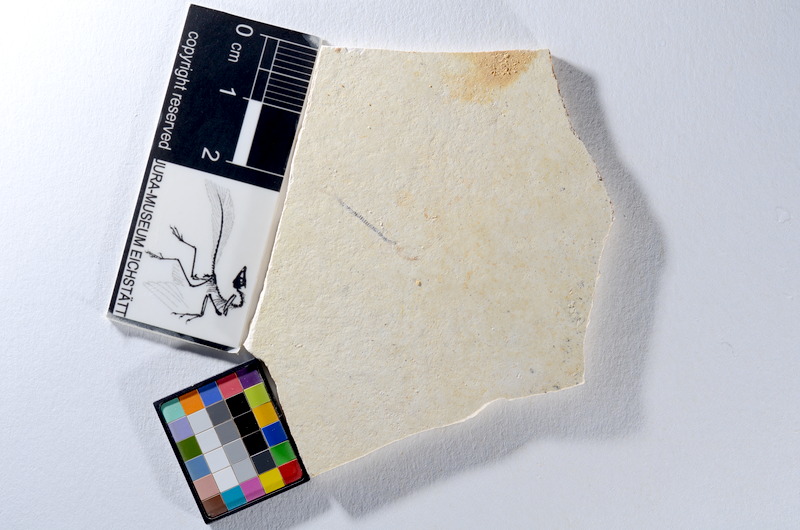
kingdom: Animalia
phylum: Chordata
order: Salmoniformes
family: Orthogonikleithridae
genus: Orthogonikleithrus
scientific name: Orthogonikleithrus hoelli
